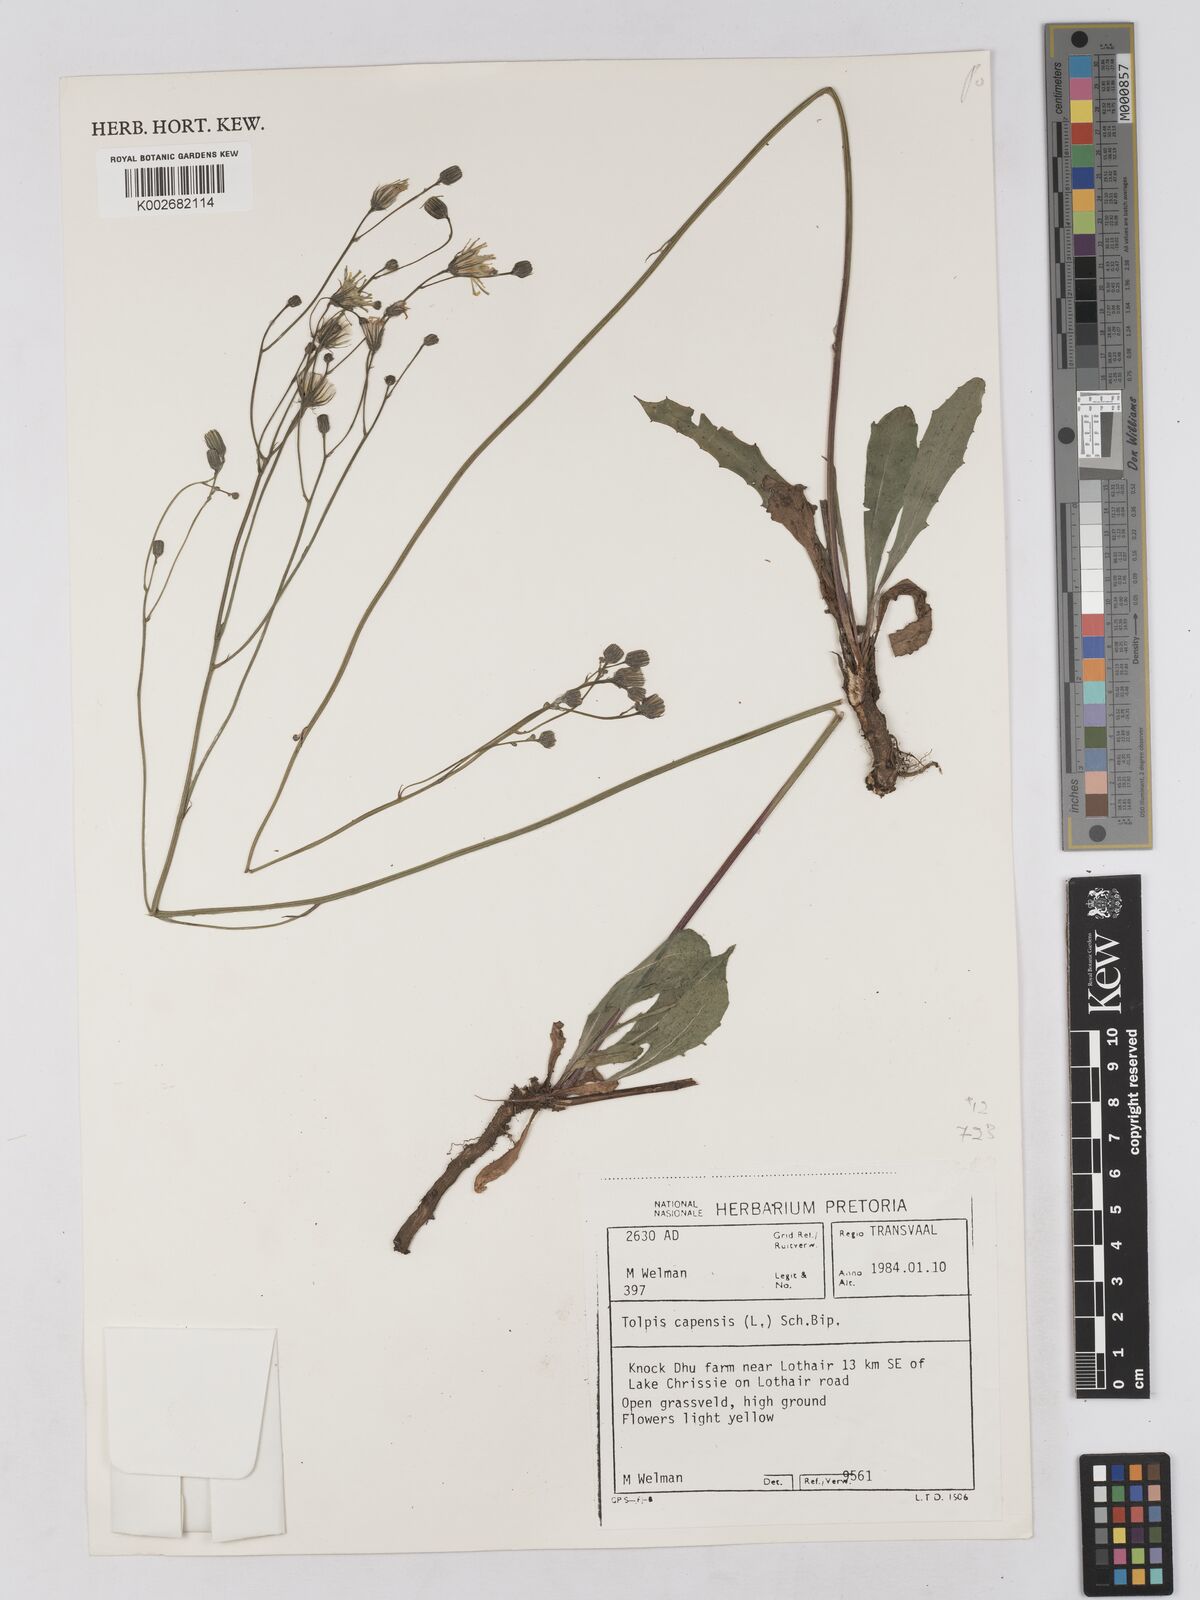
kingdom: Plantae
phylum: Tracheophyta
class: Magnoliopsida
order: Asterales
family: Asteraceae
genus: Tolpis
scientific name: Tolpis capensis
